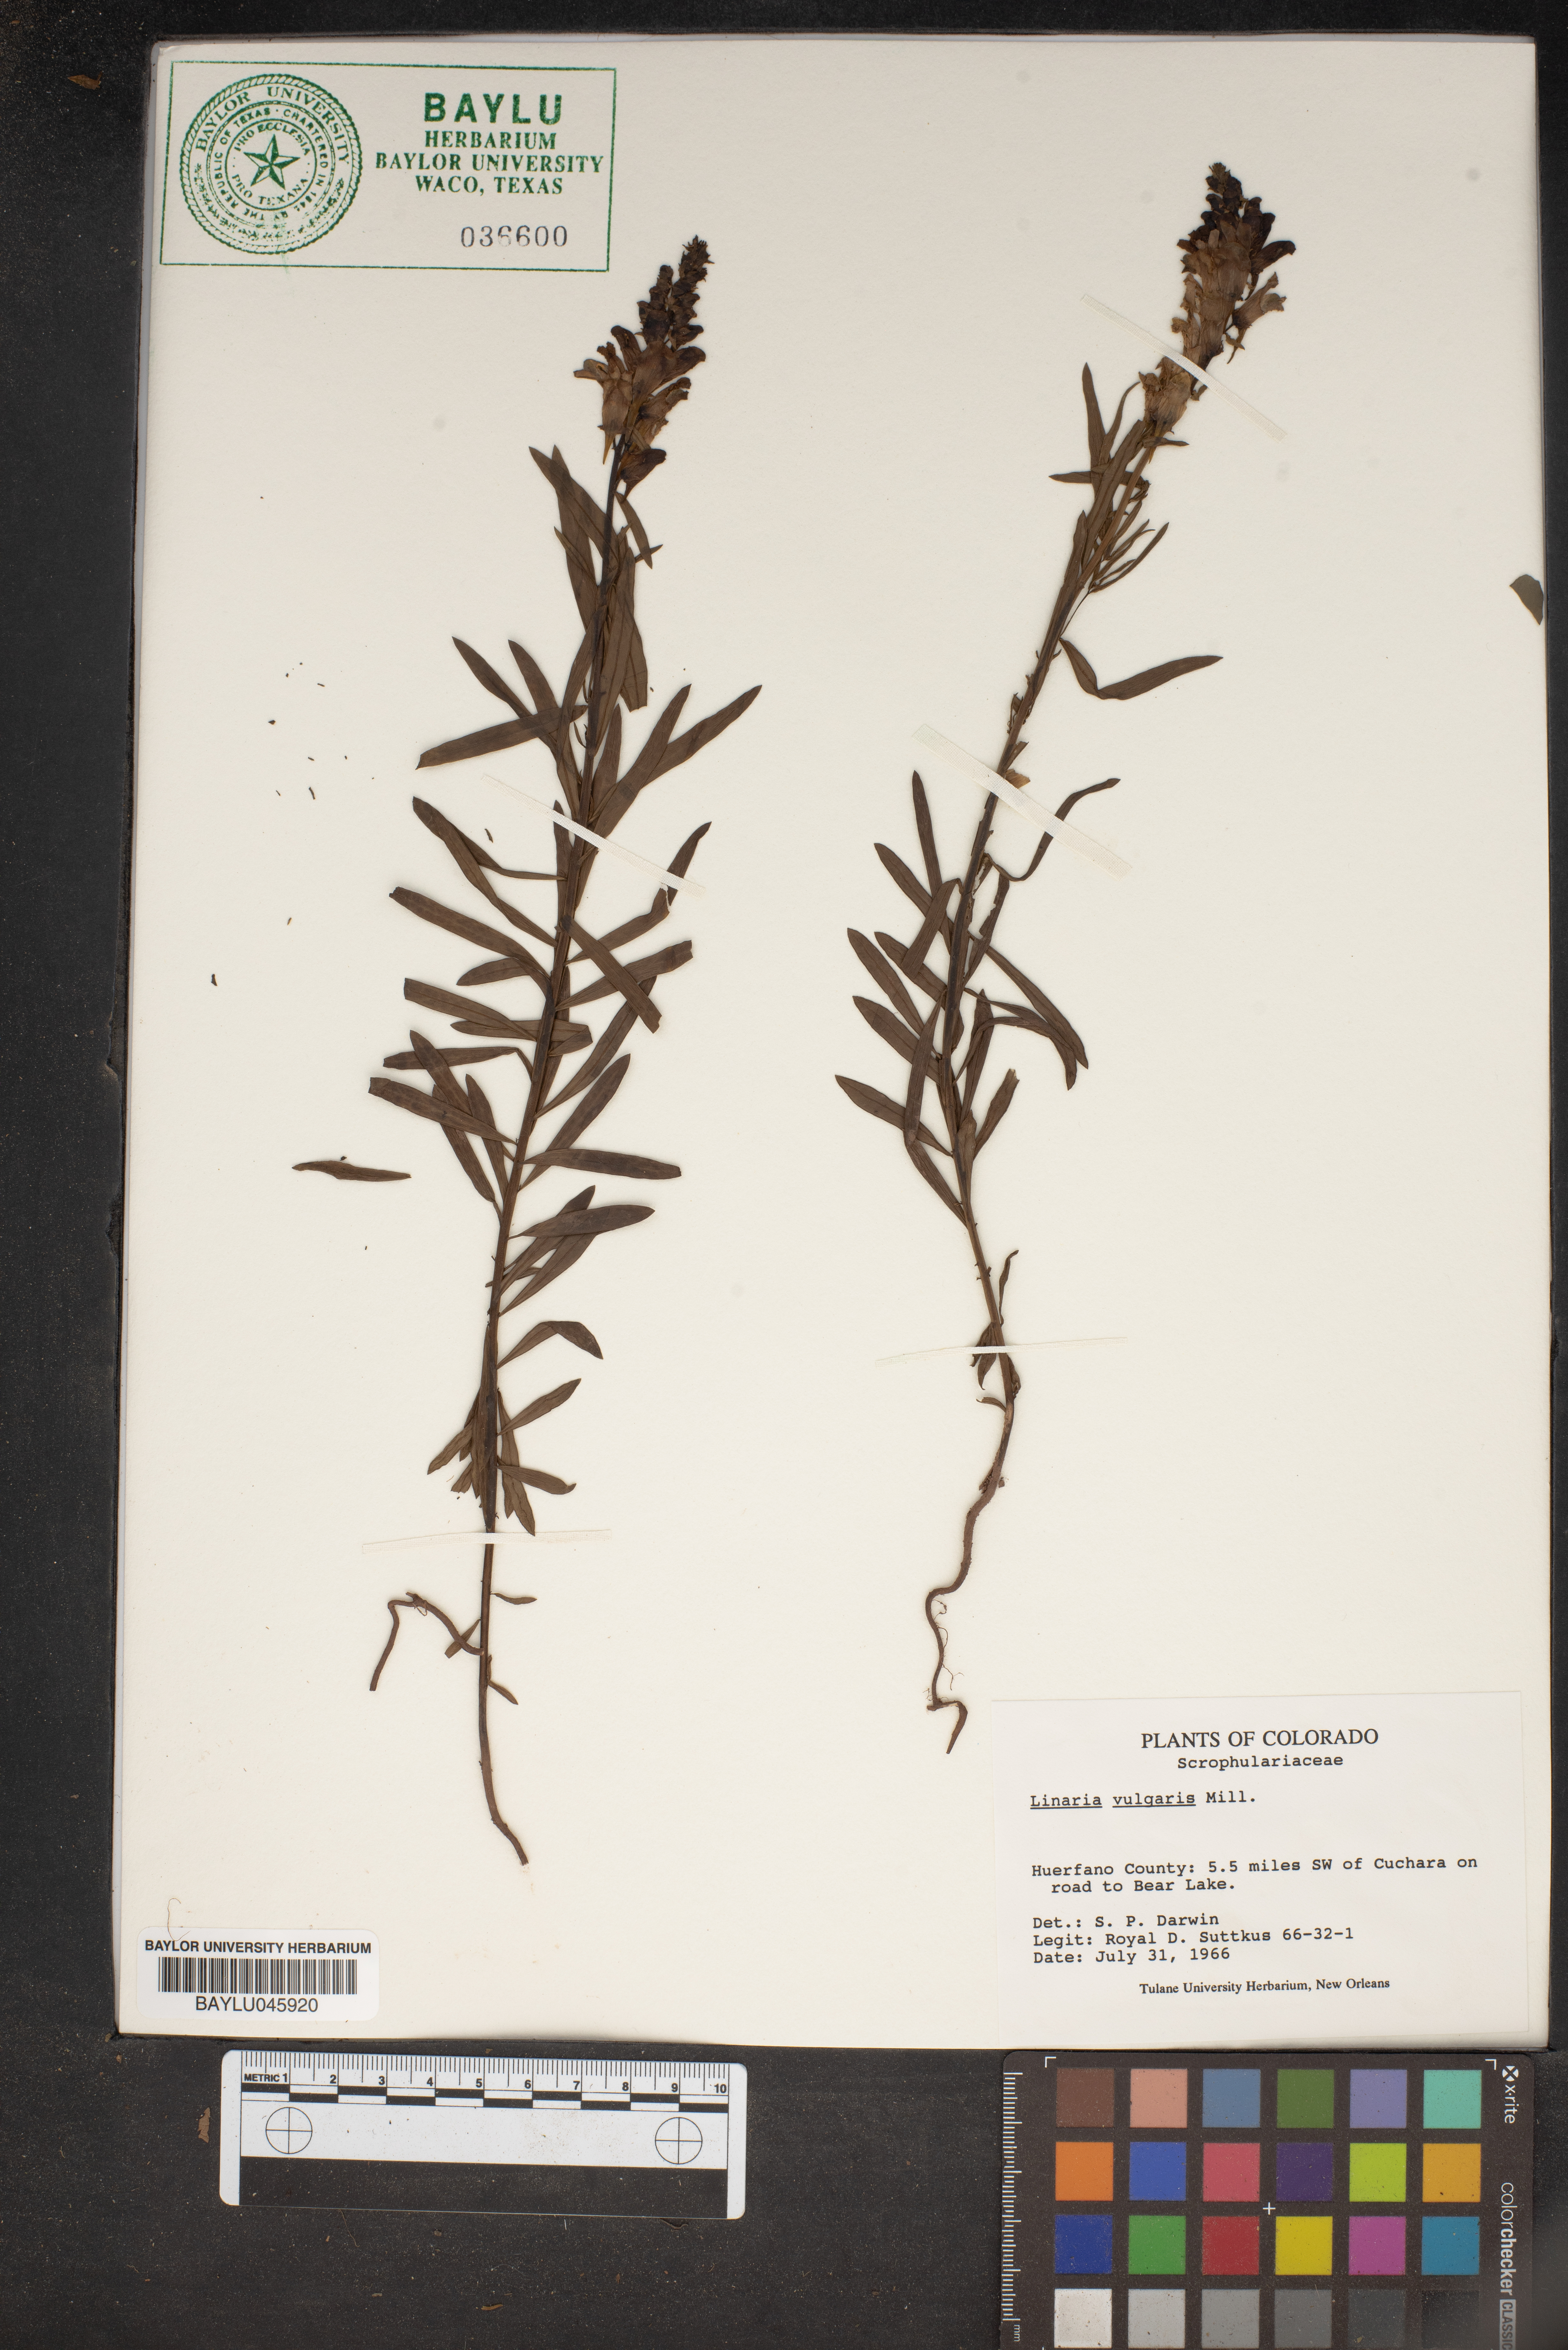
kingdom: Plantae
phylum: Tracheophyta
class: Magnoliopsida
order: Lamiales
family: Plantaginaceae
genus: Linaria
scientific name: Linaria vulgaris
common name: Butter and eggs
